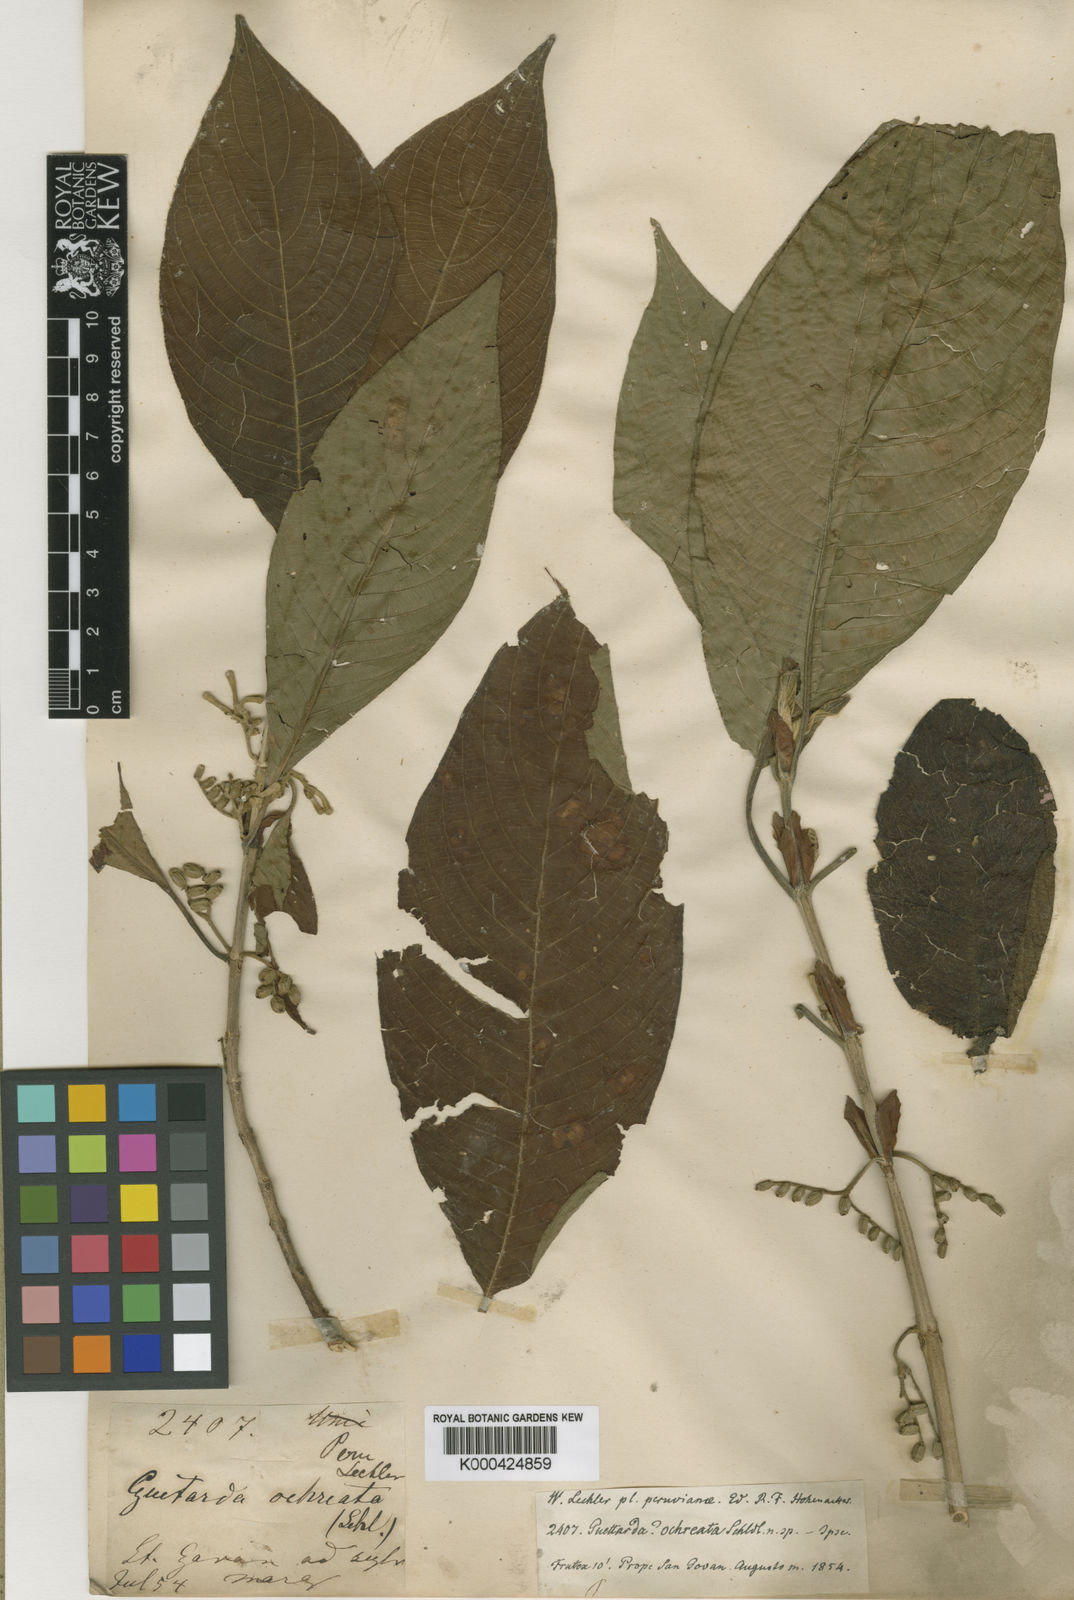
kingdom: Plantae
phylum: Tracheophyta
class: Magnoliopsida
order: Gentianales
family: Rubiaceae
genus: Tournefortiopsis
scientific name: Tournefortiopsis crispiflora
